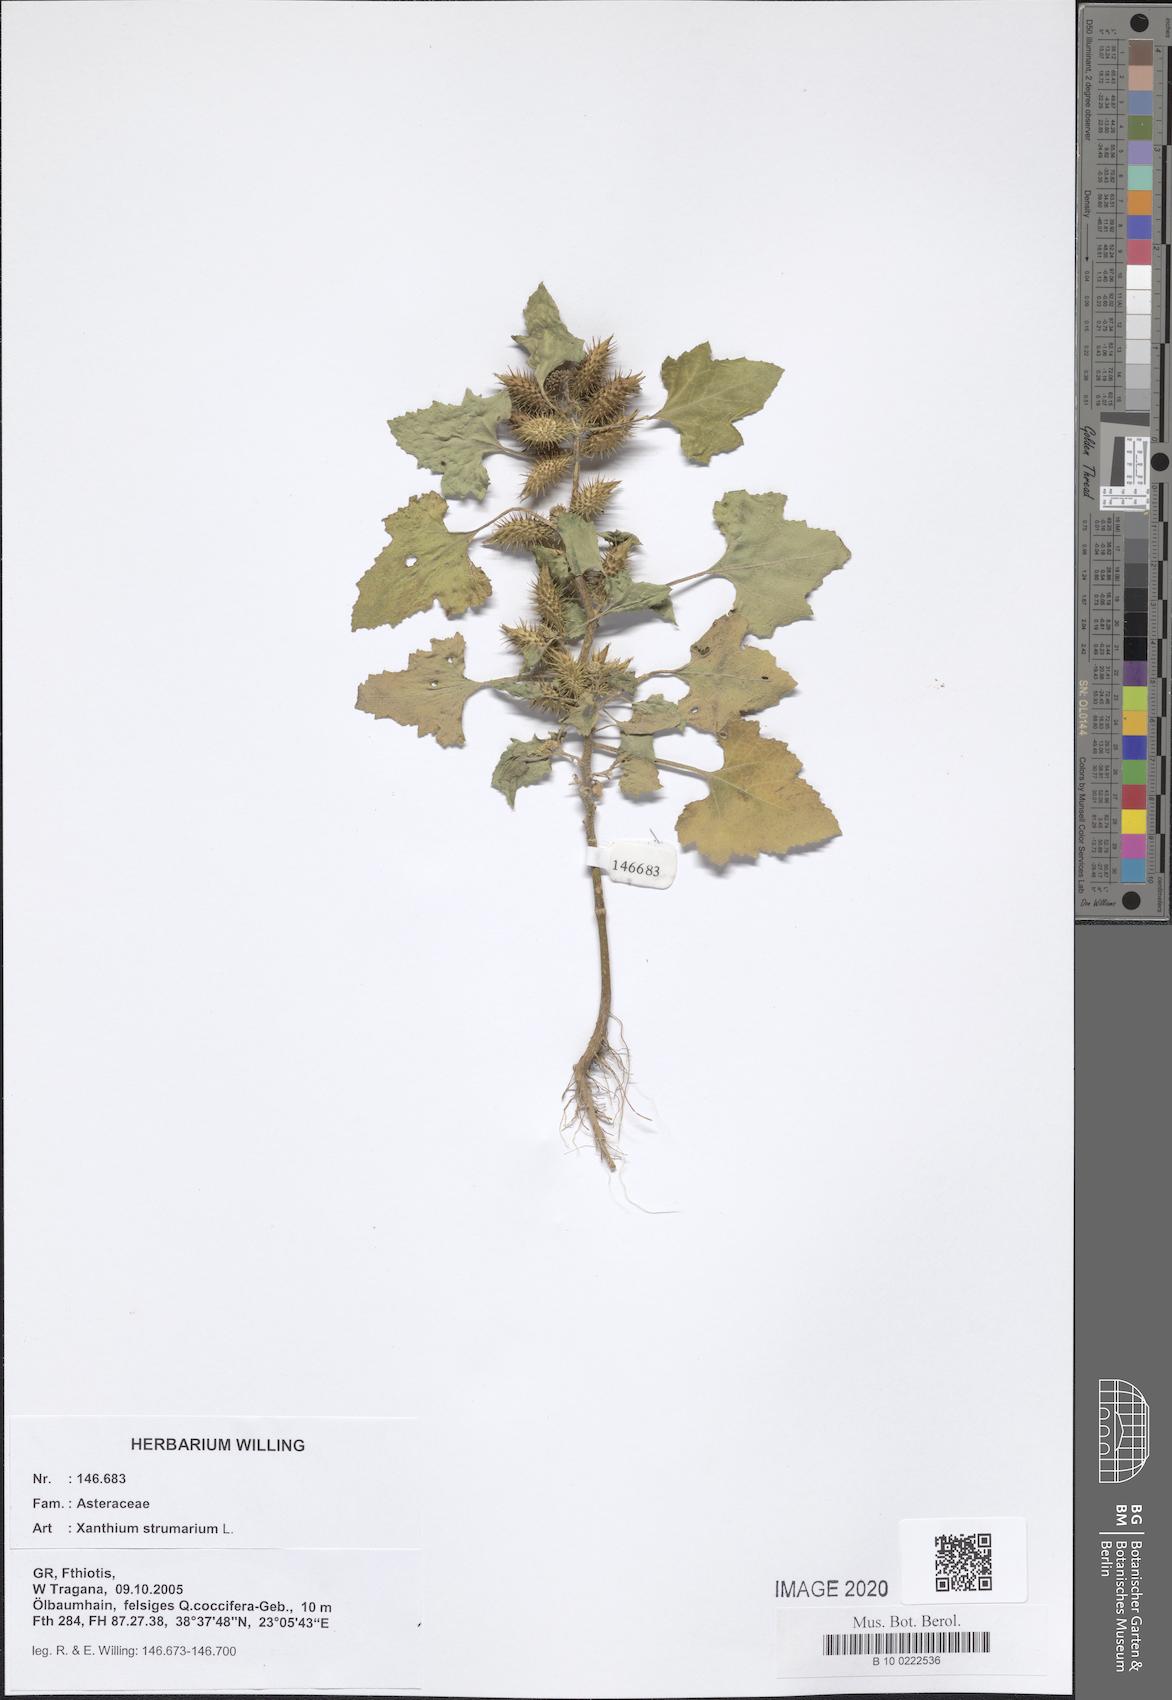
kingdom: Plantae
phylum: Tracheophyta
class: Magnoliopsida
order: Asterales
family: Asteraceae
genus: Xanthium
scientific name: Xanthium strumarium
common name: Rough cocklebur
